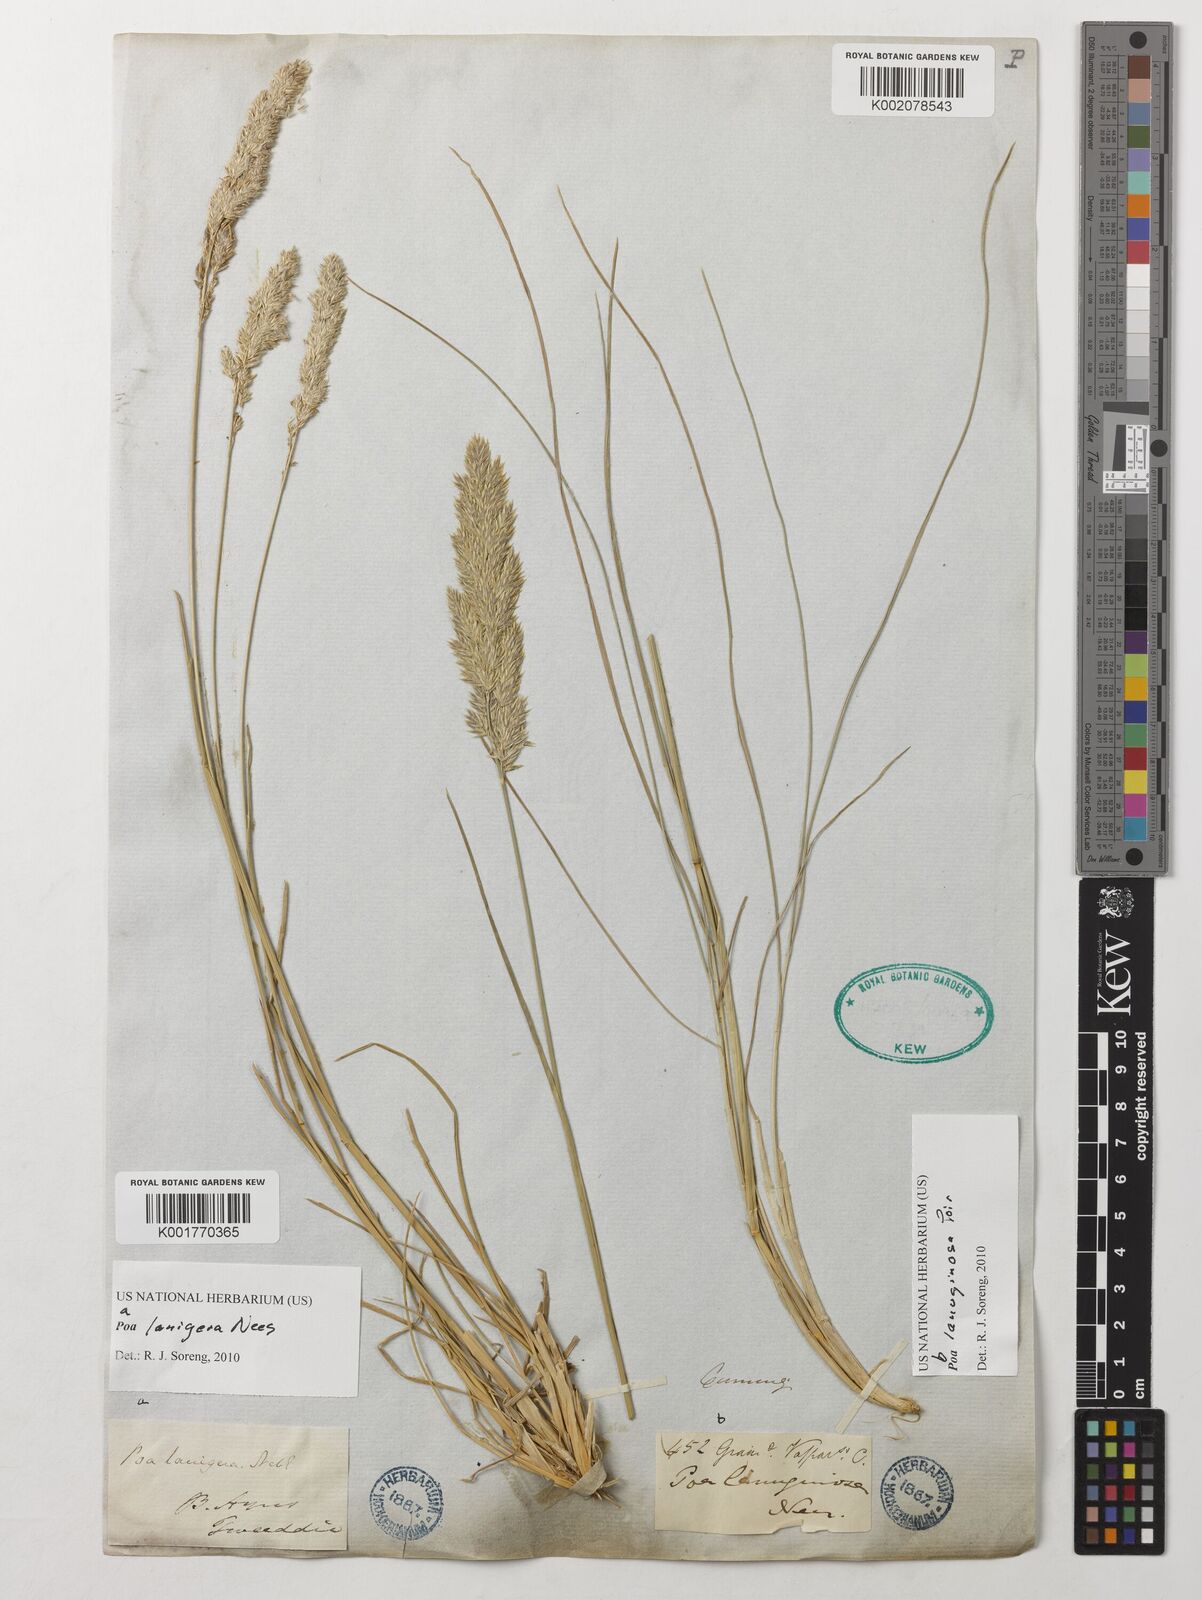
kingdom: Plantae
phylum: Tracheophyta
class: Liliopsida
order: Poales
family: Poaceae
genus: Poa
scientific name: Poa lanigera
